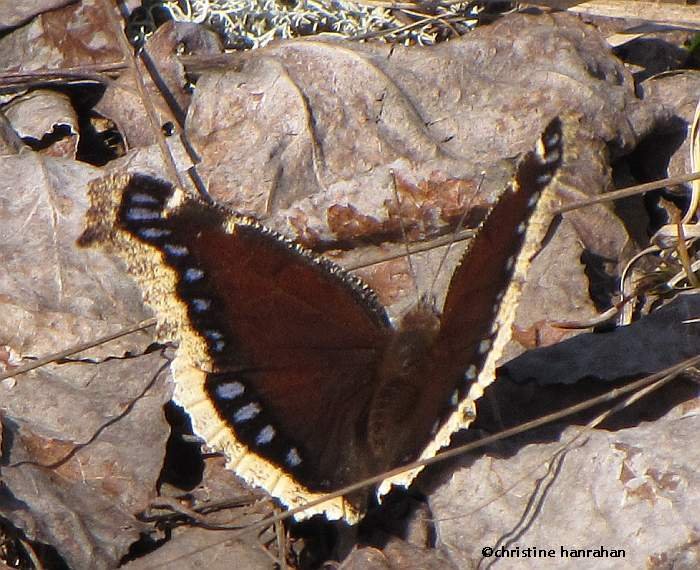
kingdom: Animalia
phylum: Arthropoda
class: Insecta
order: Lepidoptera
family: Nymphalidae
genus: Nymphalis
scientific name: Nymphalis antiopa
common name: Mourning Cloak
